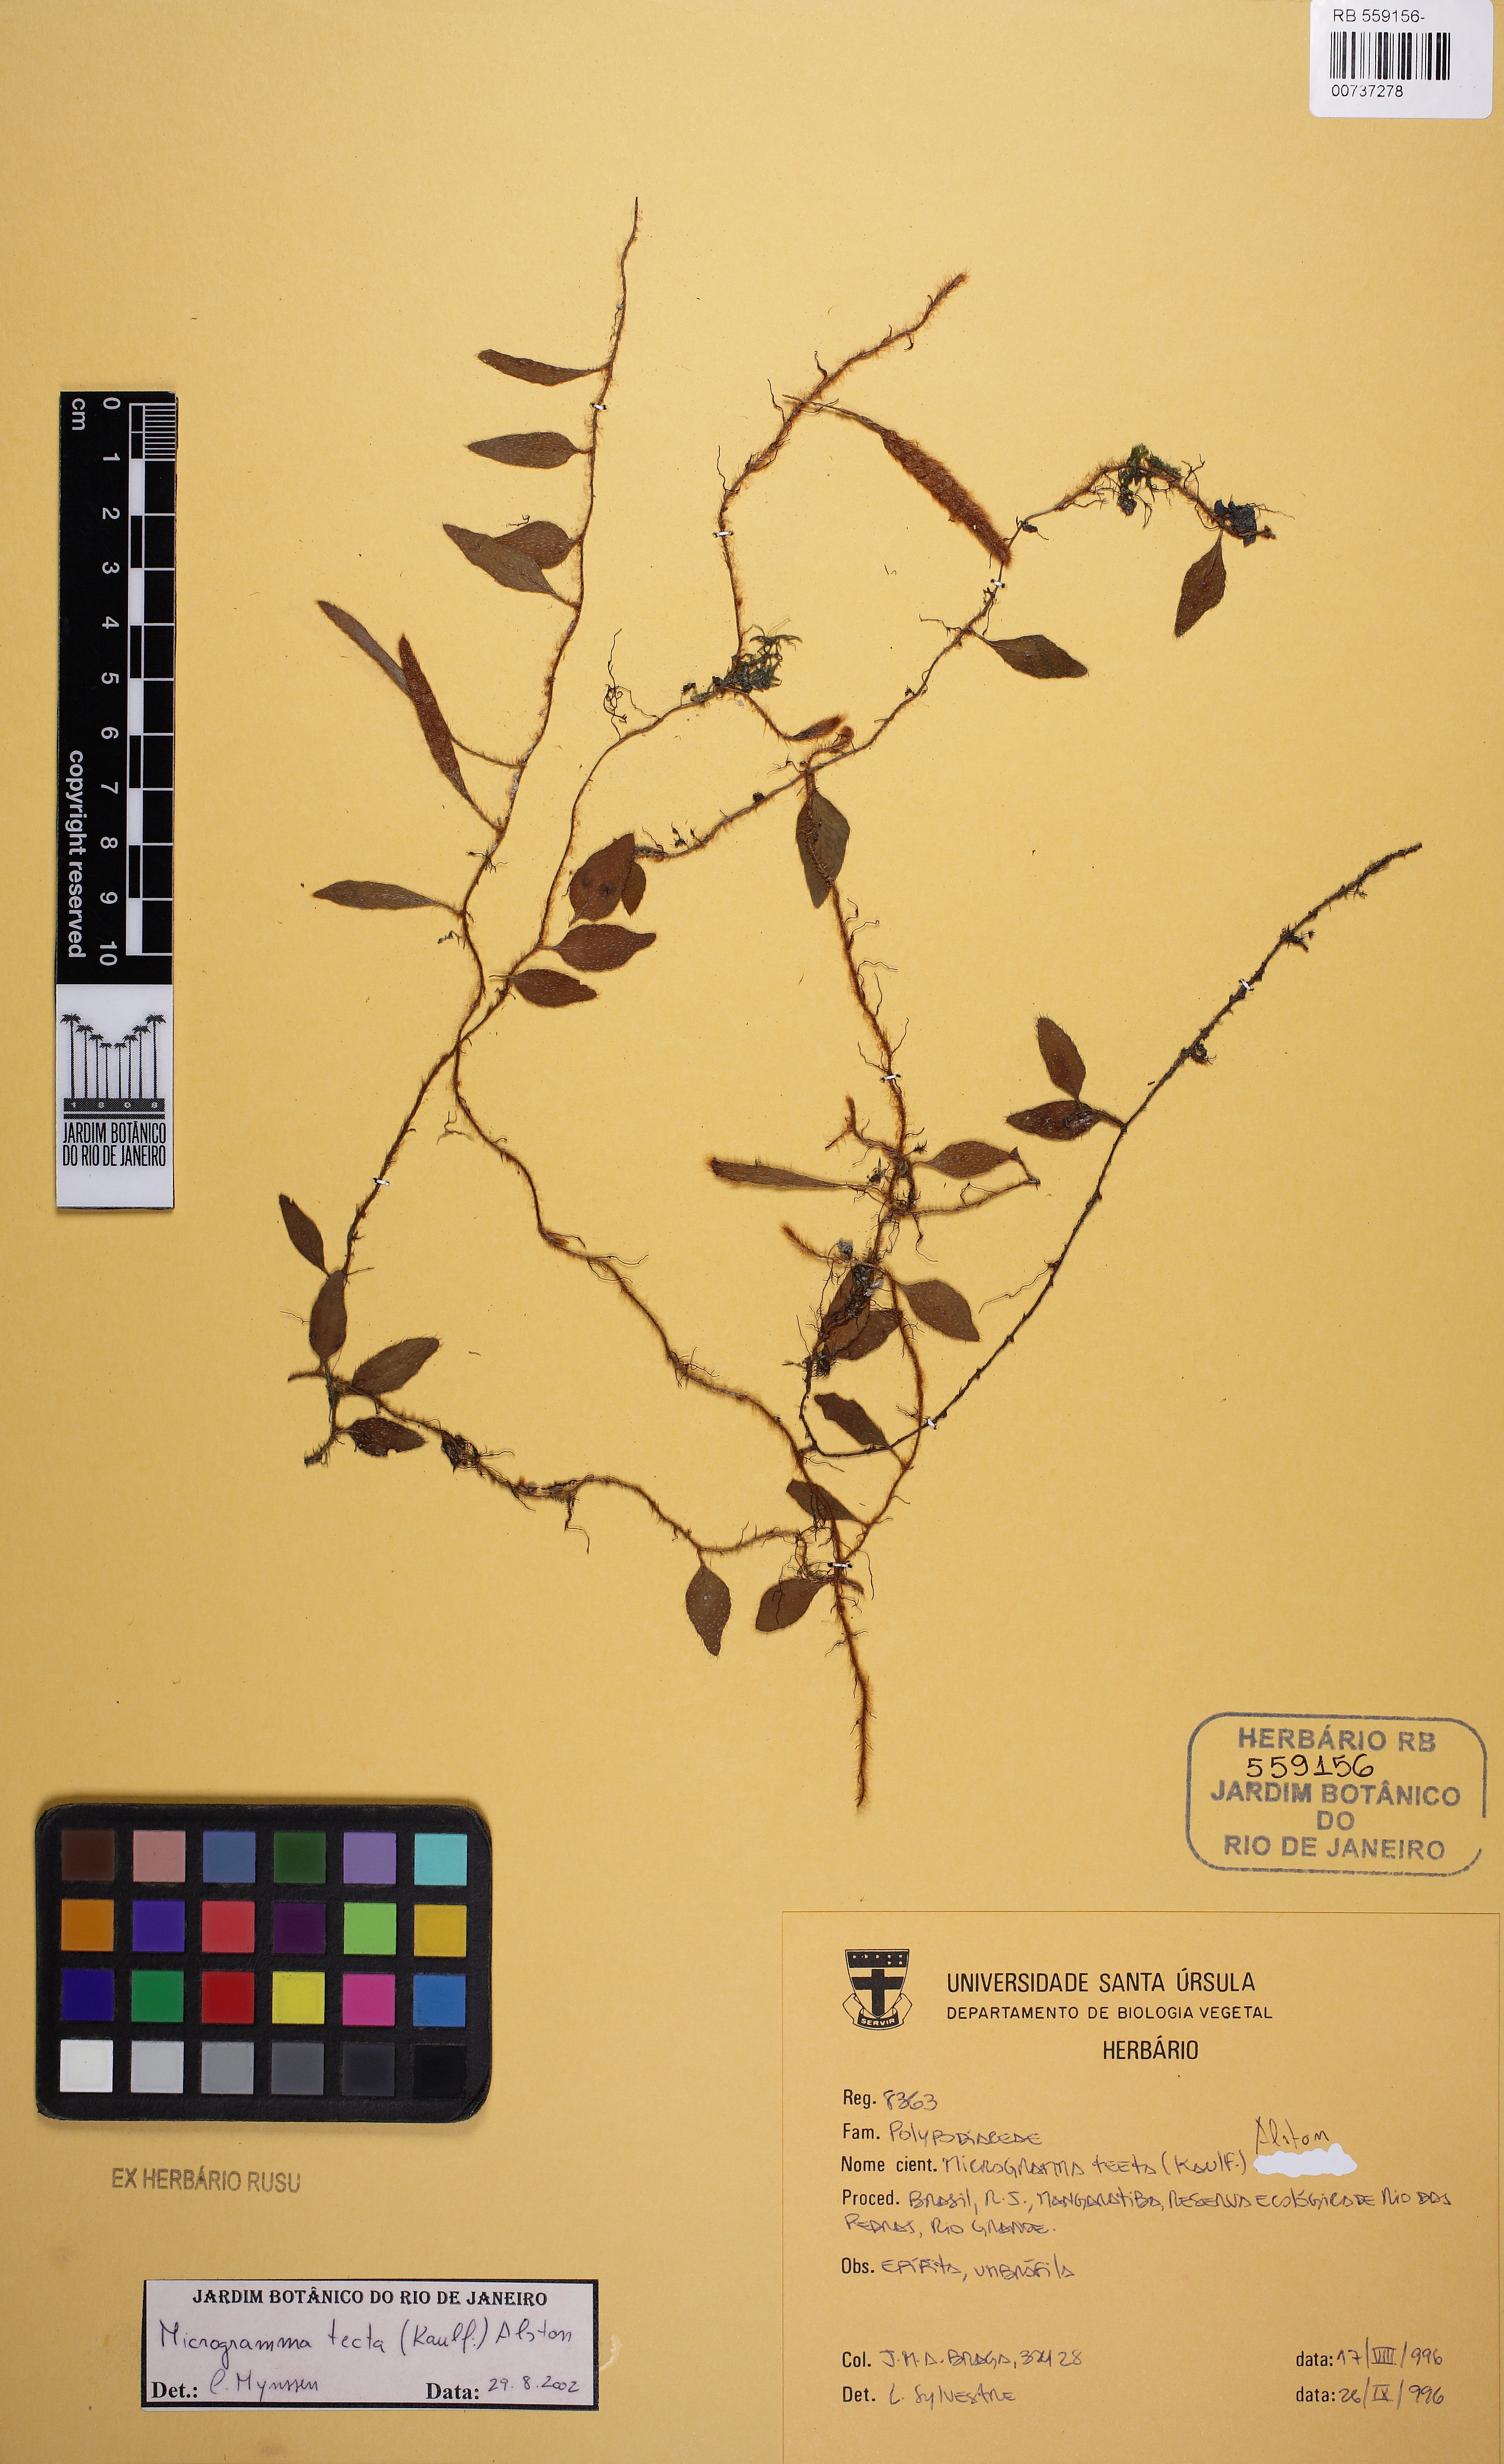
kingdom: Plantae
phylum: Tracheophyta
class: Polypodiopsida
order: Polypodiales
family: Polypodiaceae
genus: Microgramma
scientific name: Microgramma tecta
